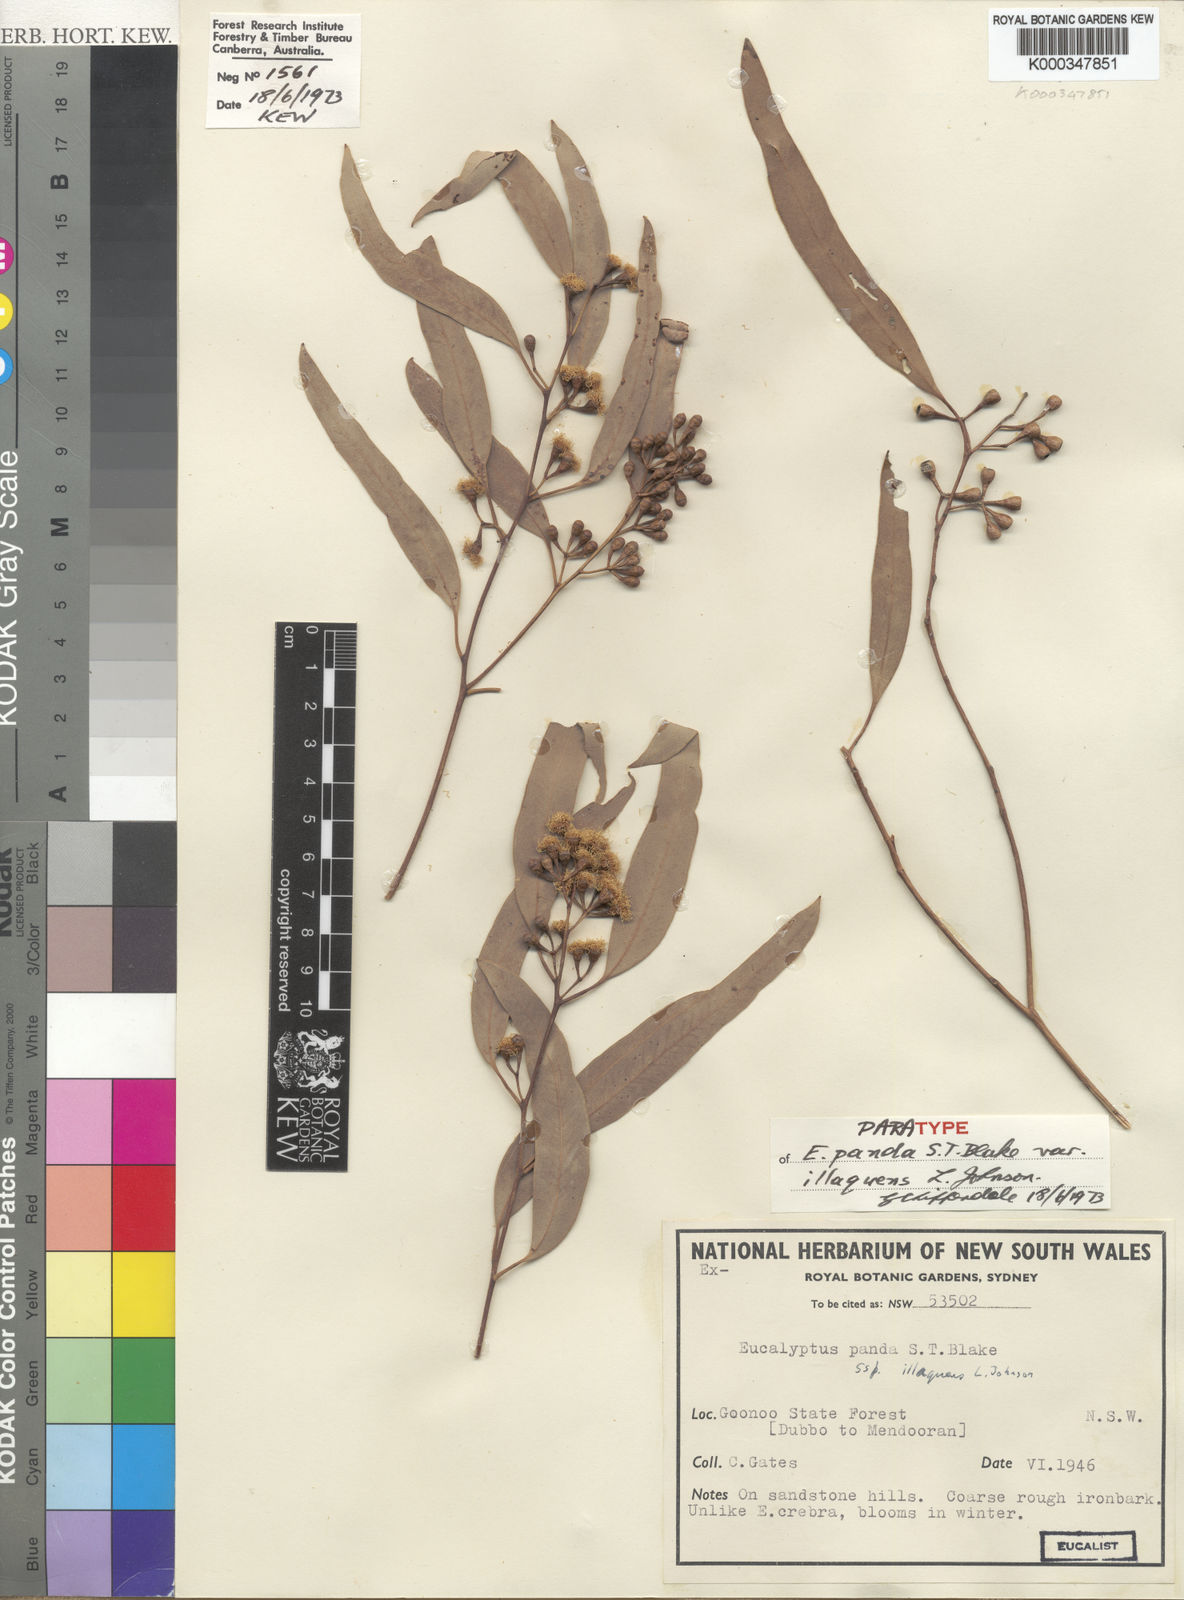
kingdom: Plantae
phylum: Tracheophyta
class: Magnoliopsida
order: Myrtales
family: Myrtaceae
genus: Eucalyptus
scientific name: Eucalyptus beyeri
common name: Beyer's ironbark
